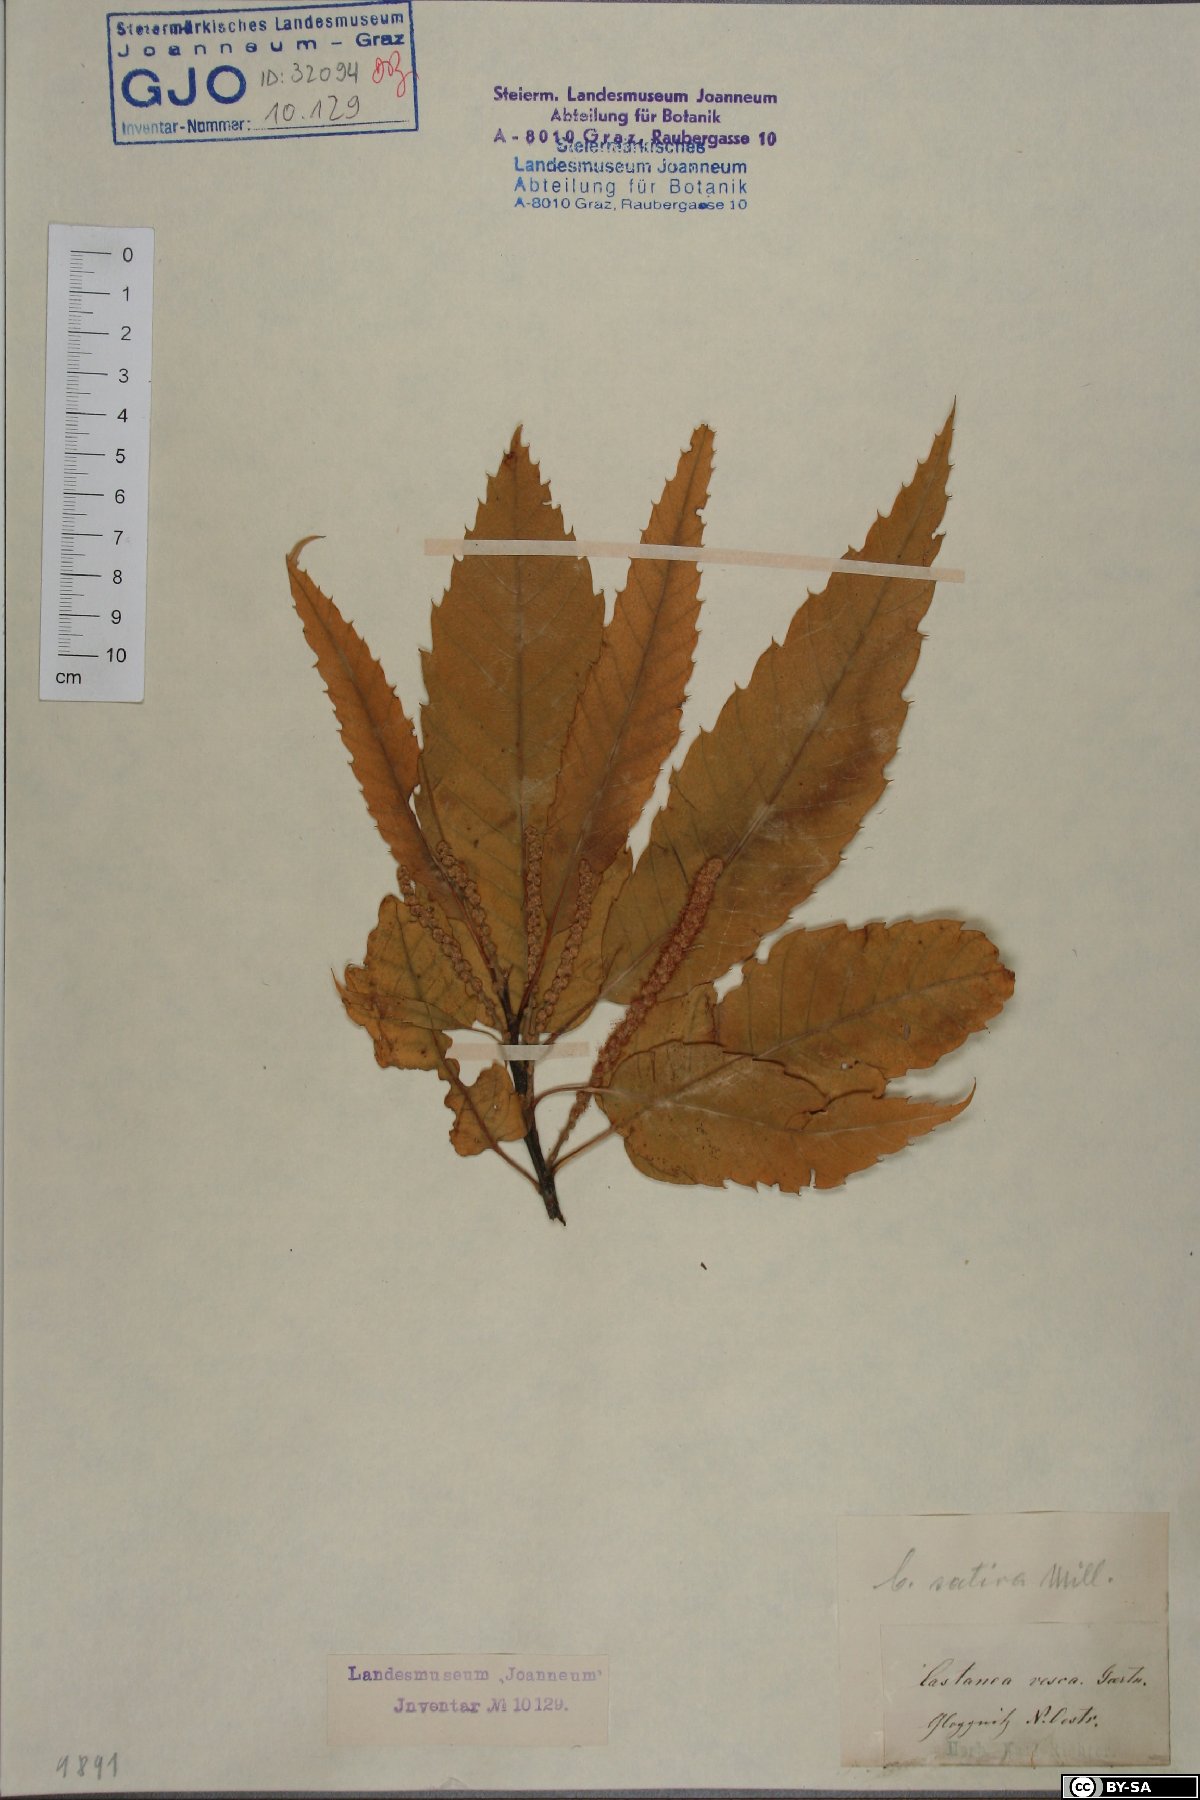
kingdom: Plantae
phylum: Tracheophyta
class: Magnoliopsida
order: Fagales
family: Fagaceae
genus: Castanea
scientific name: Castanea sativa
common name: Sweet chestnut
